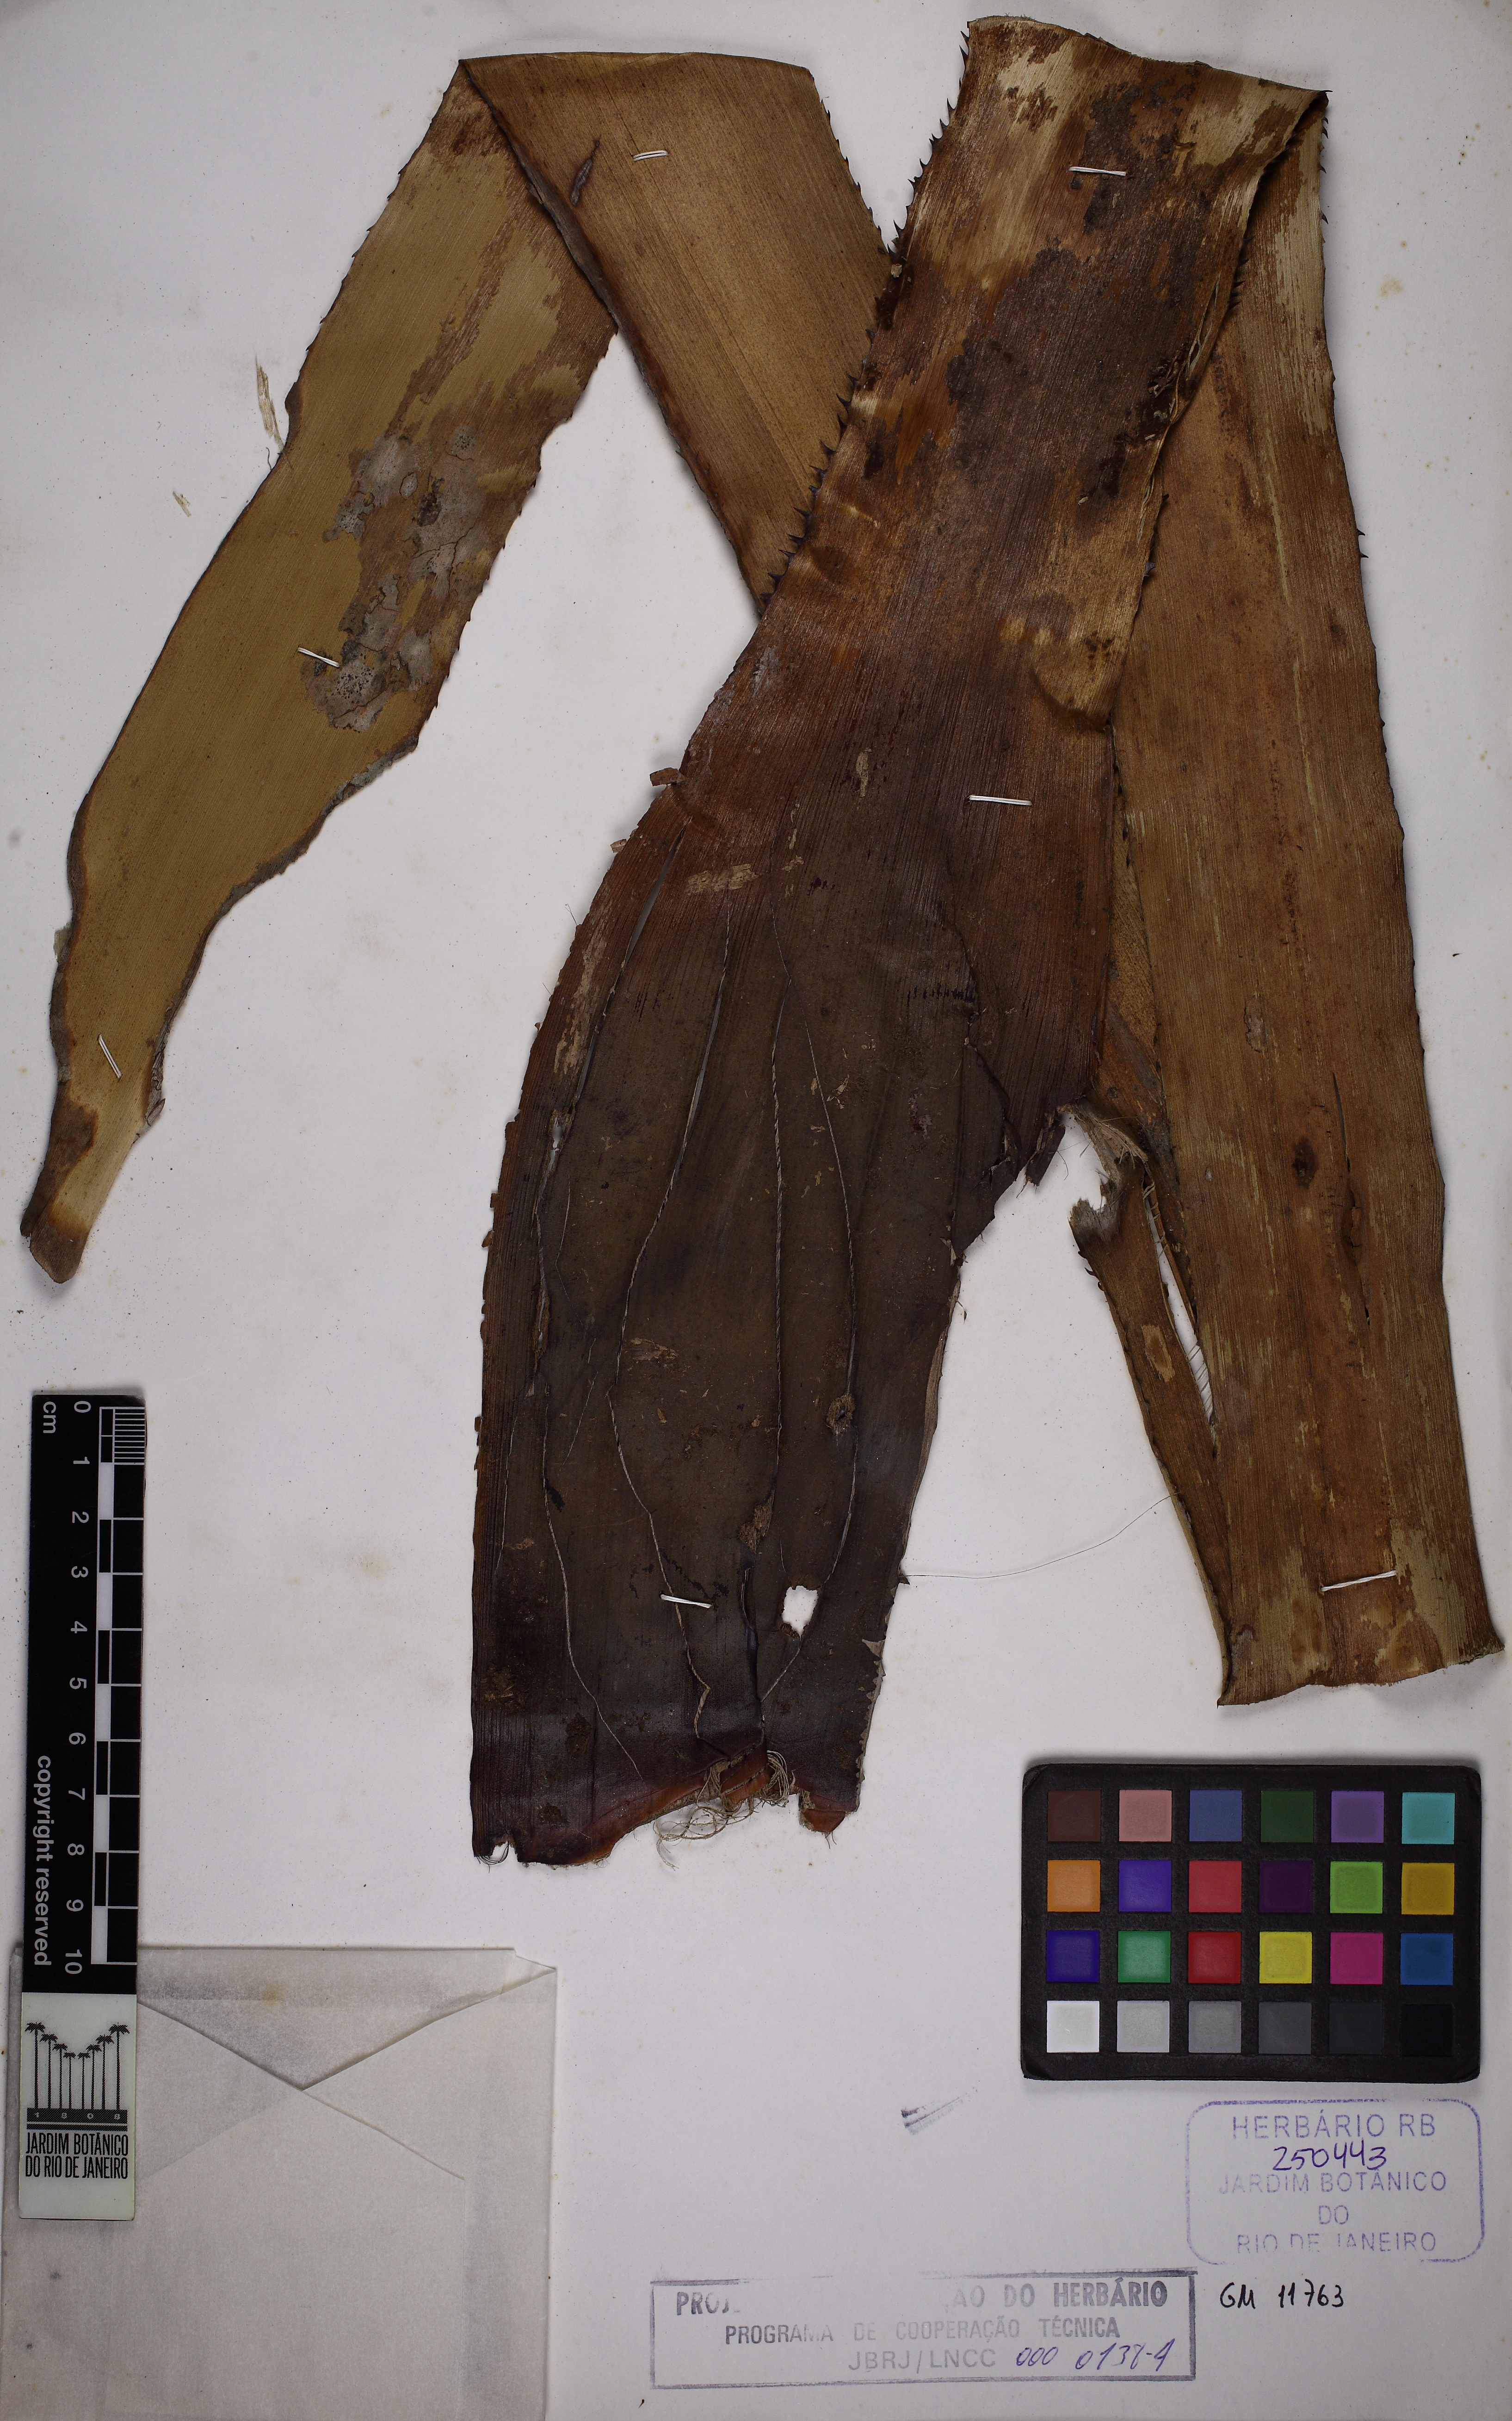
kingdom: Plantae
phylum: Tracheophyta
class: Liliopsida
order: Poales
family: Bromeliaceae
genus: Aechmea
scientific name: Aechmea ornata
